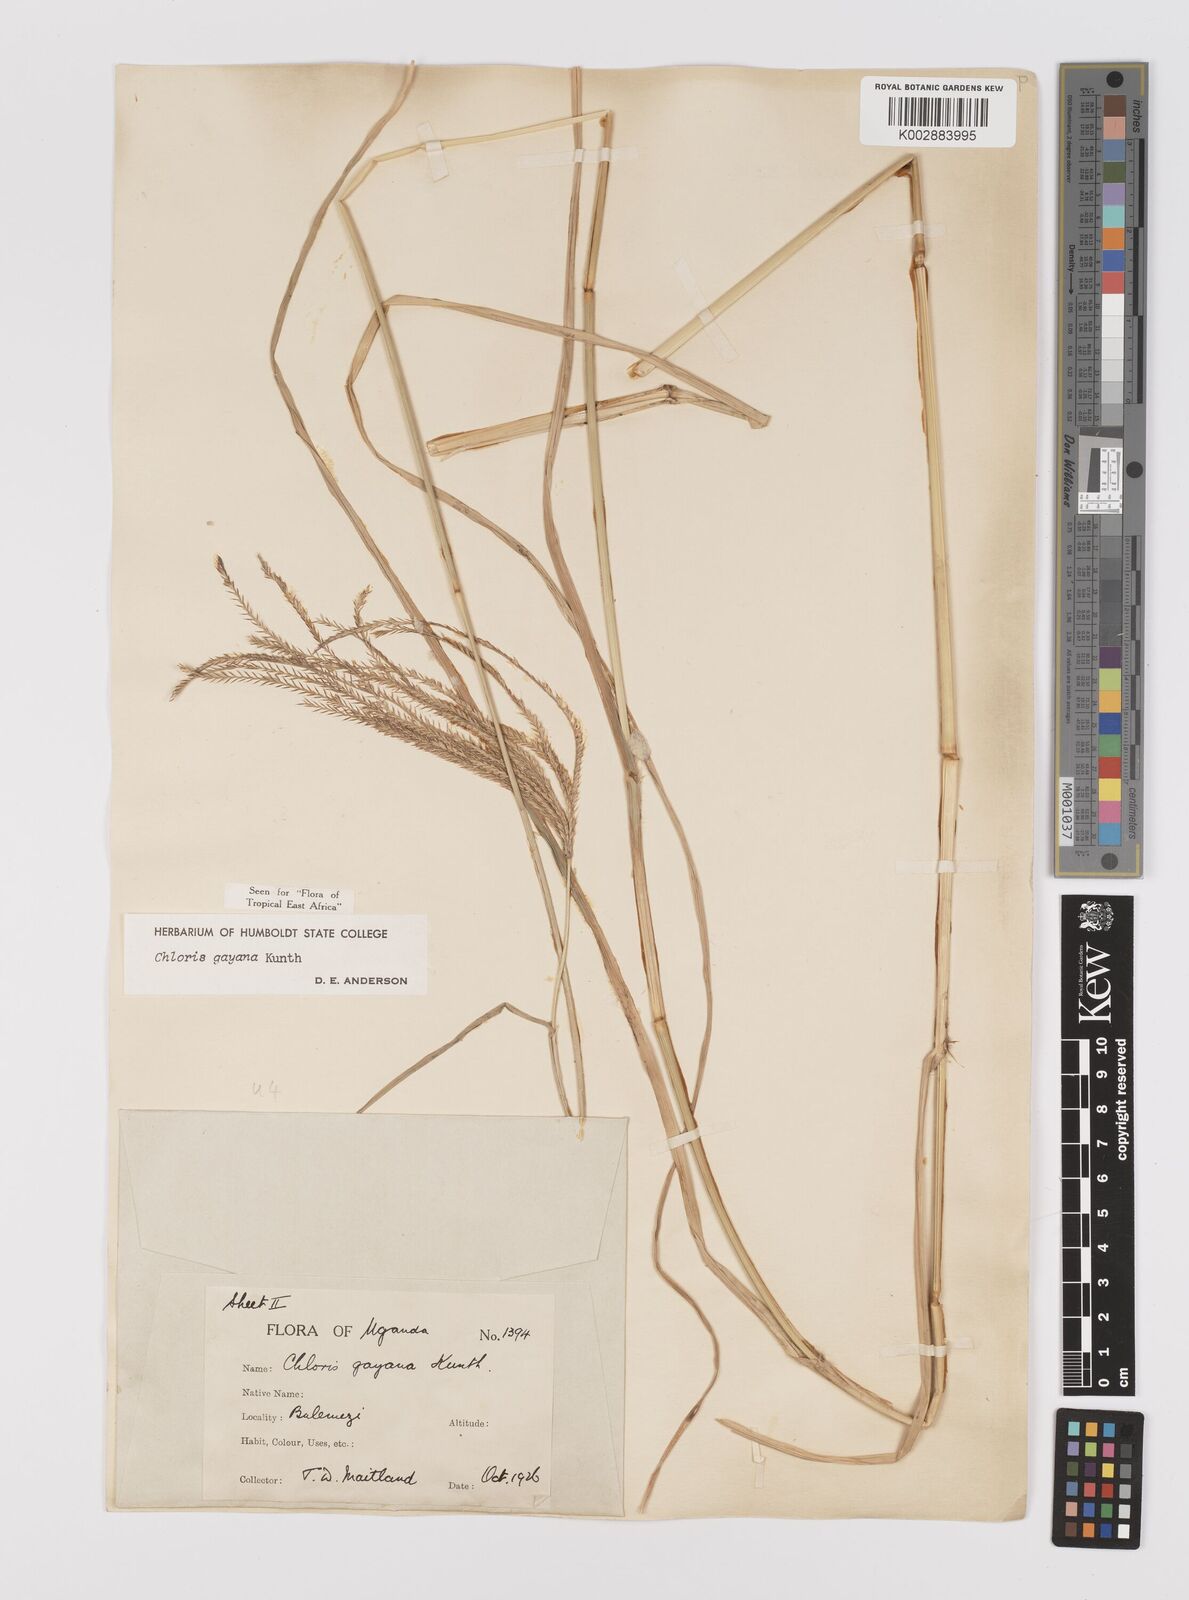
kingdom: Plantae
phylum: Tracheophyta
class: Liliopsida
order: Poales
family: Poaceae
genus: Chloris
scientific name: Chloris gayana
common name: Rhodes grass
